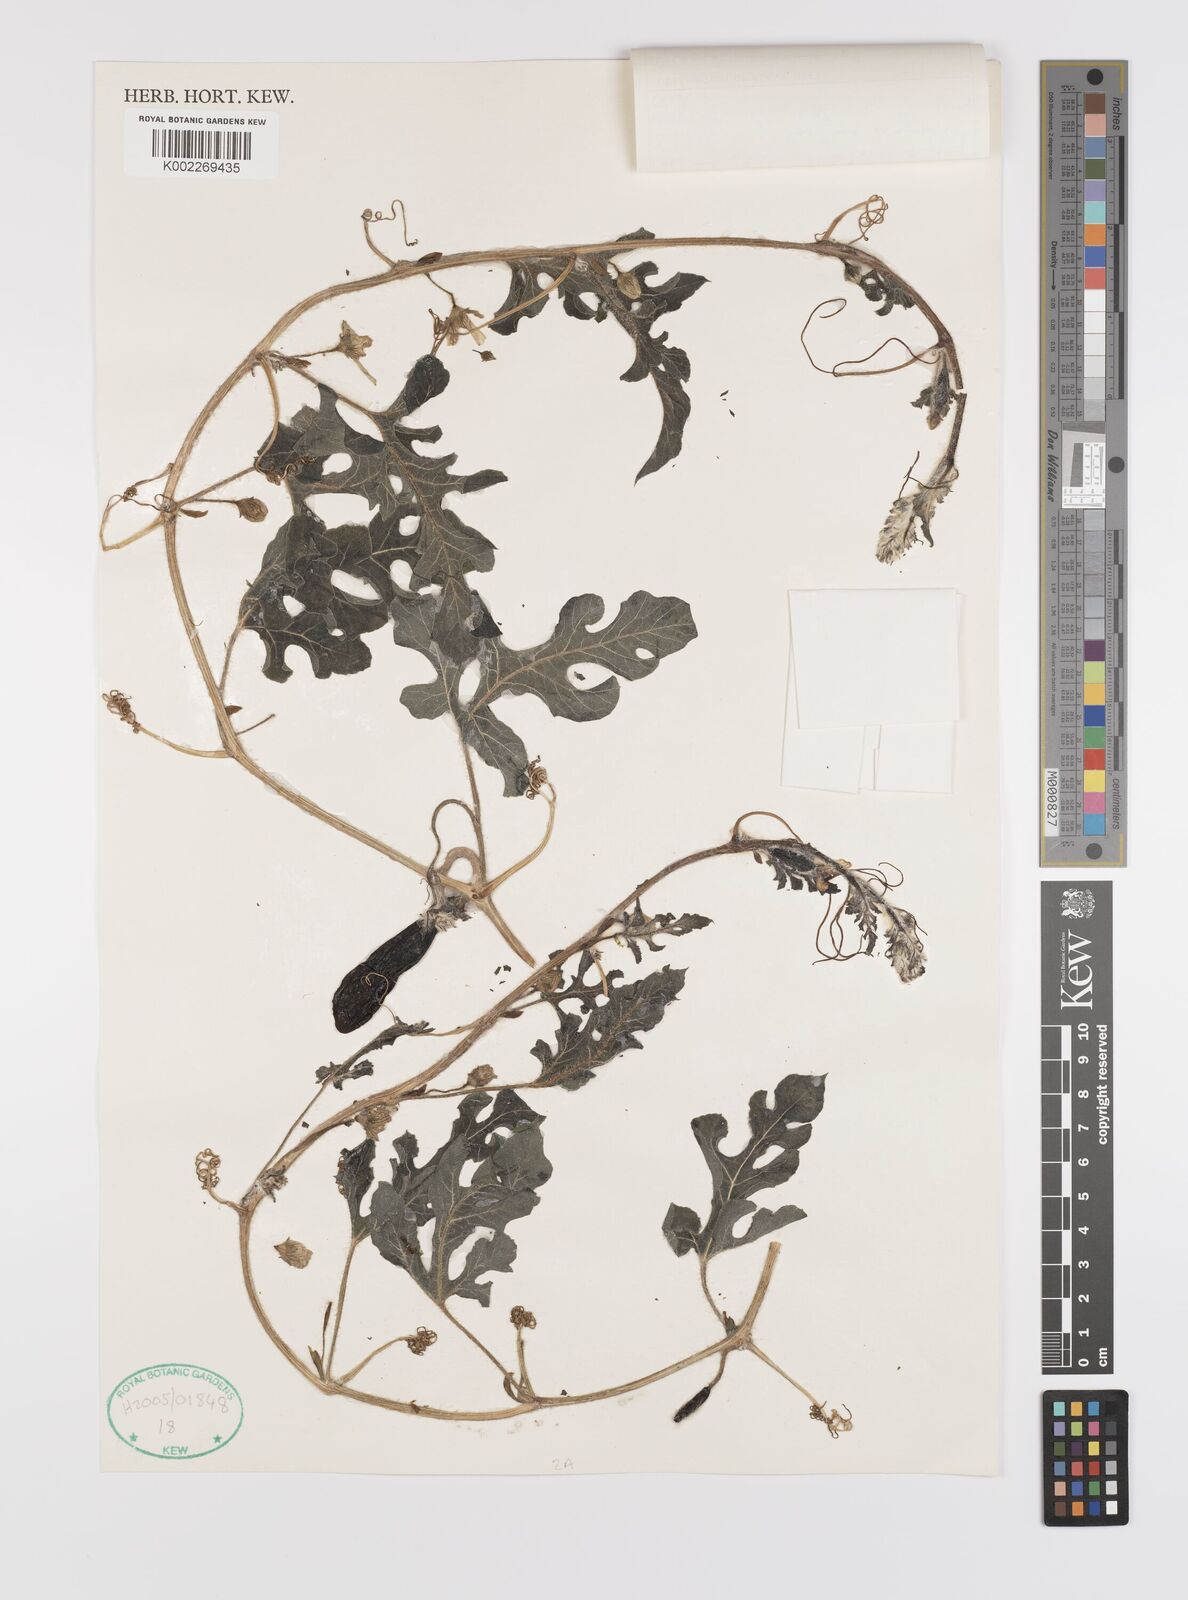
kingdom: Plantae
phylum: Tracheophyta
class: Magnoliopsida
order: Cucurbitales
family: Cucurbitaceae
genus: Citrullus
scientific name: Citrullus lanatus
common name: Watermelon
